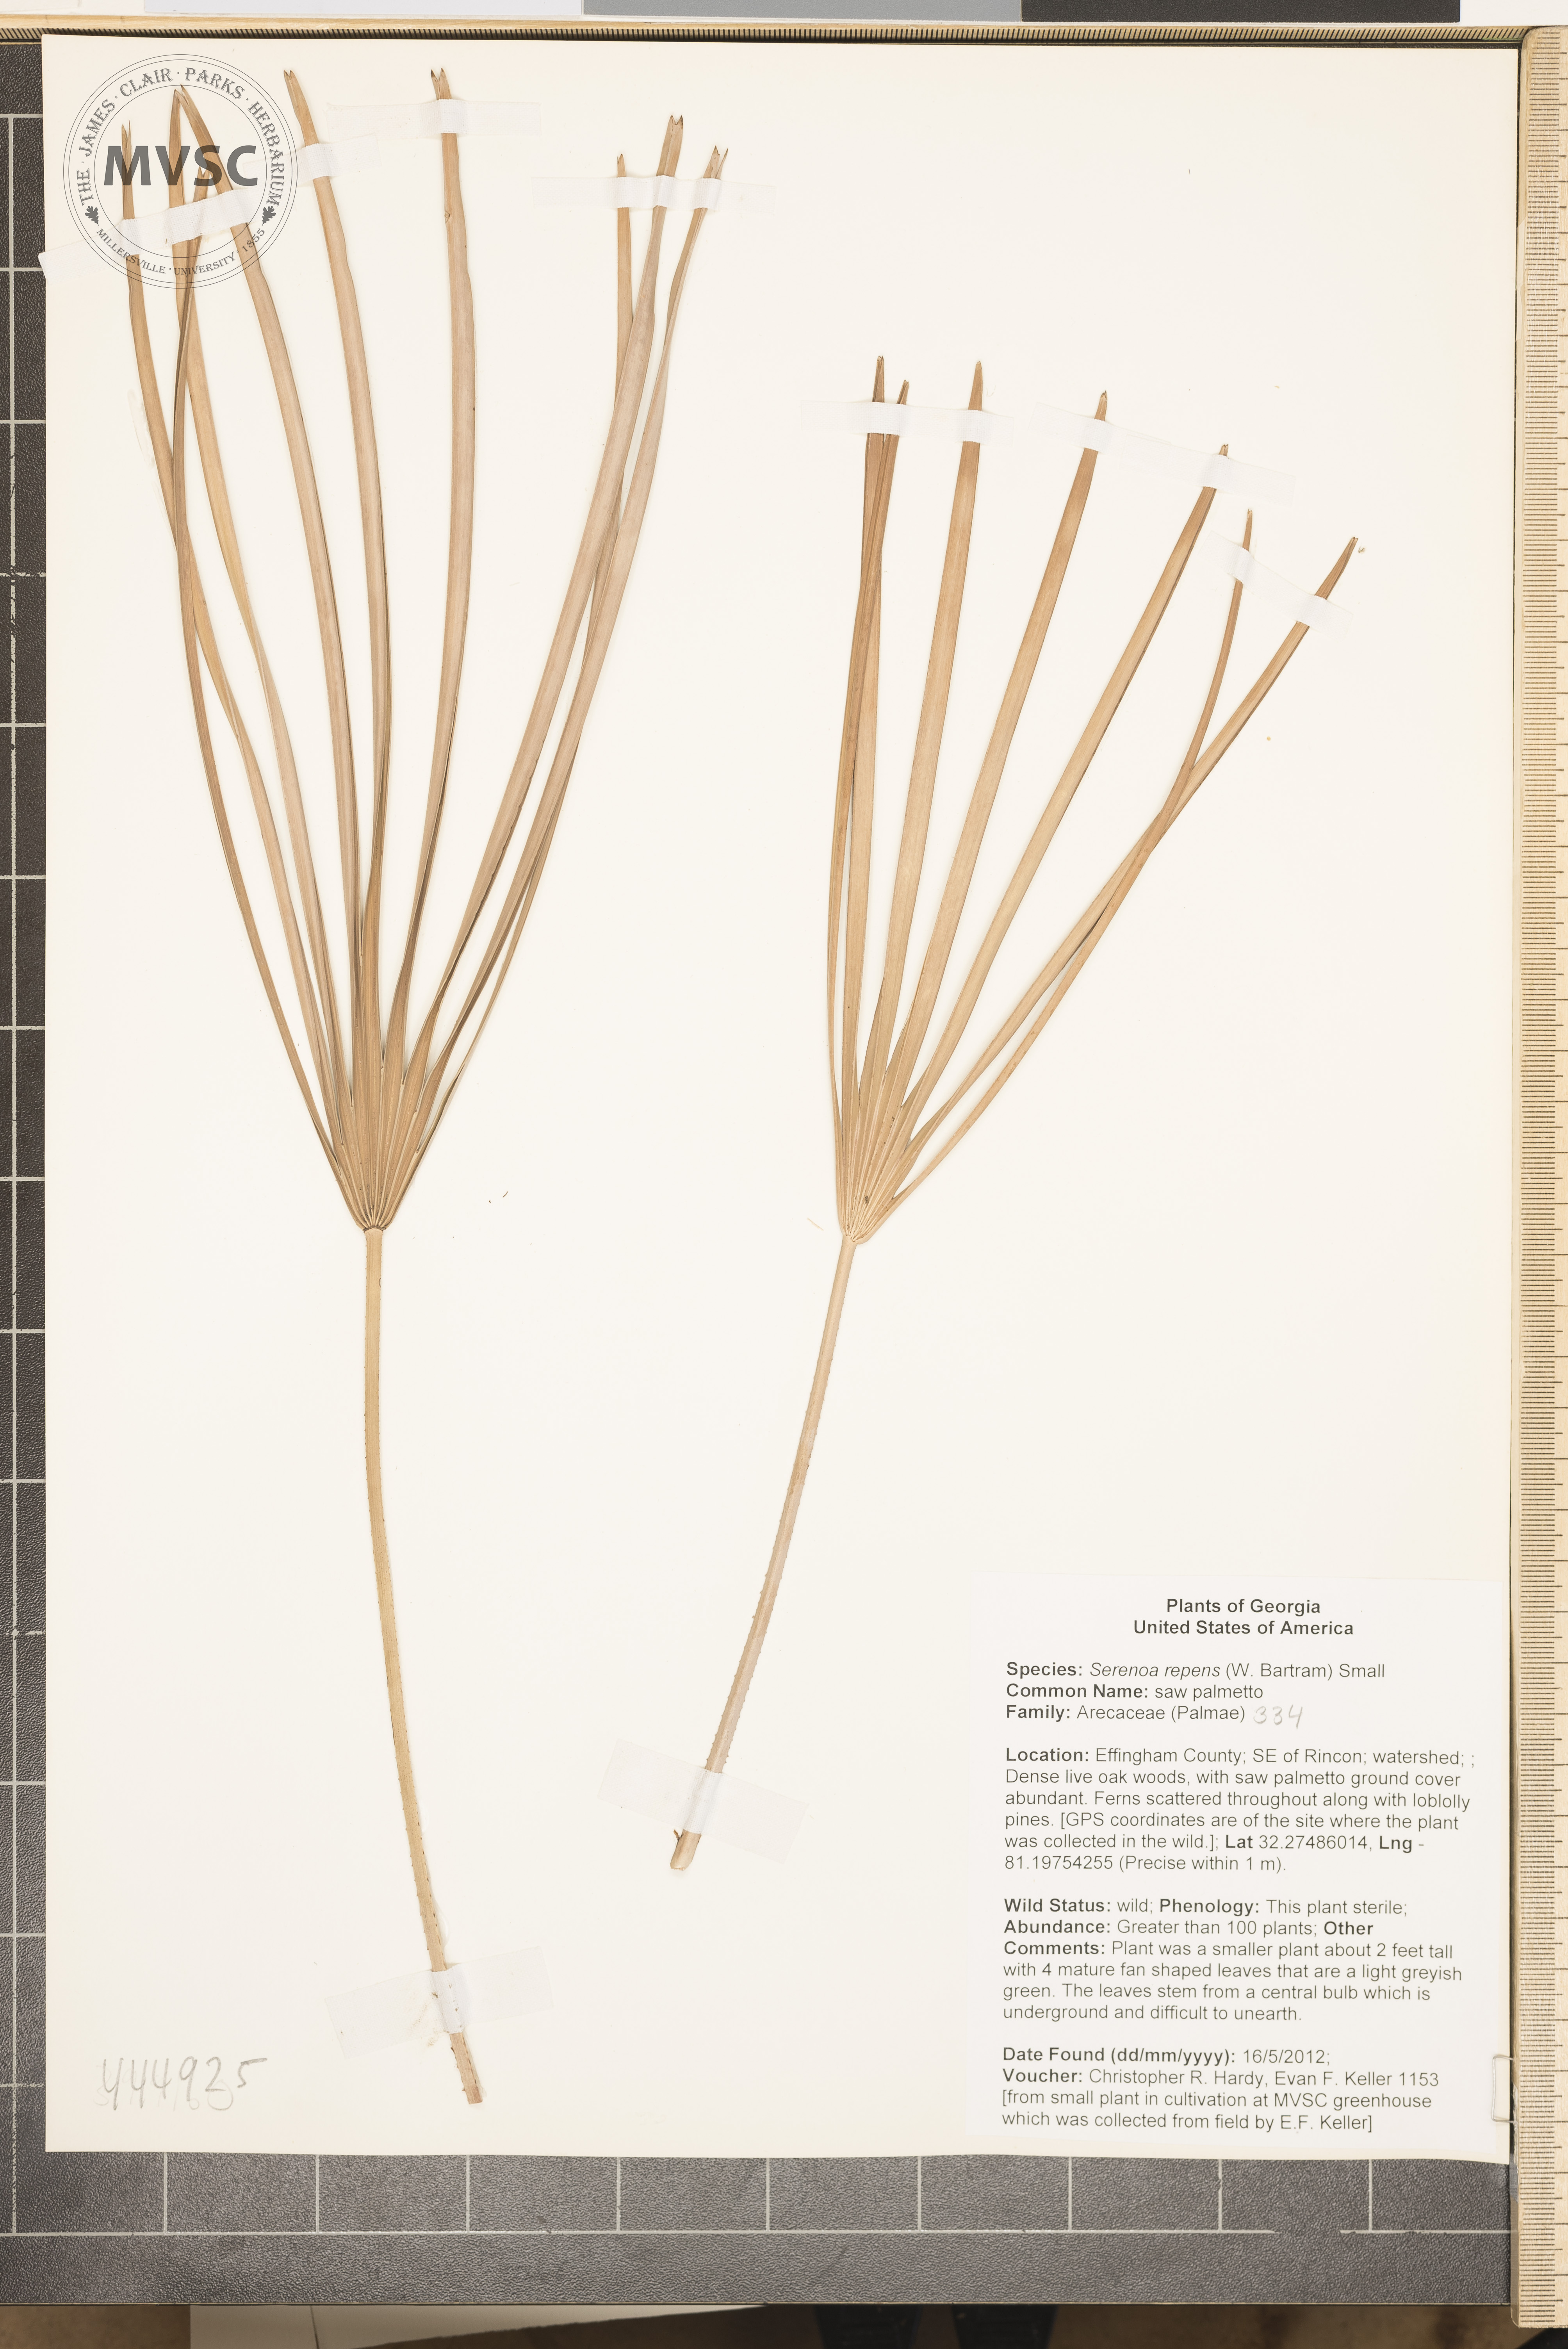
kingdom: Plantae
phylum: Tracheophyta
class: Liliopsida
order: Arecales
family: Arecaceae
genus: Serenoa
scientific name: Serenoa repens
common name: saw palmetto
